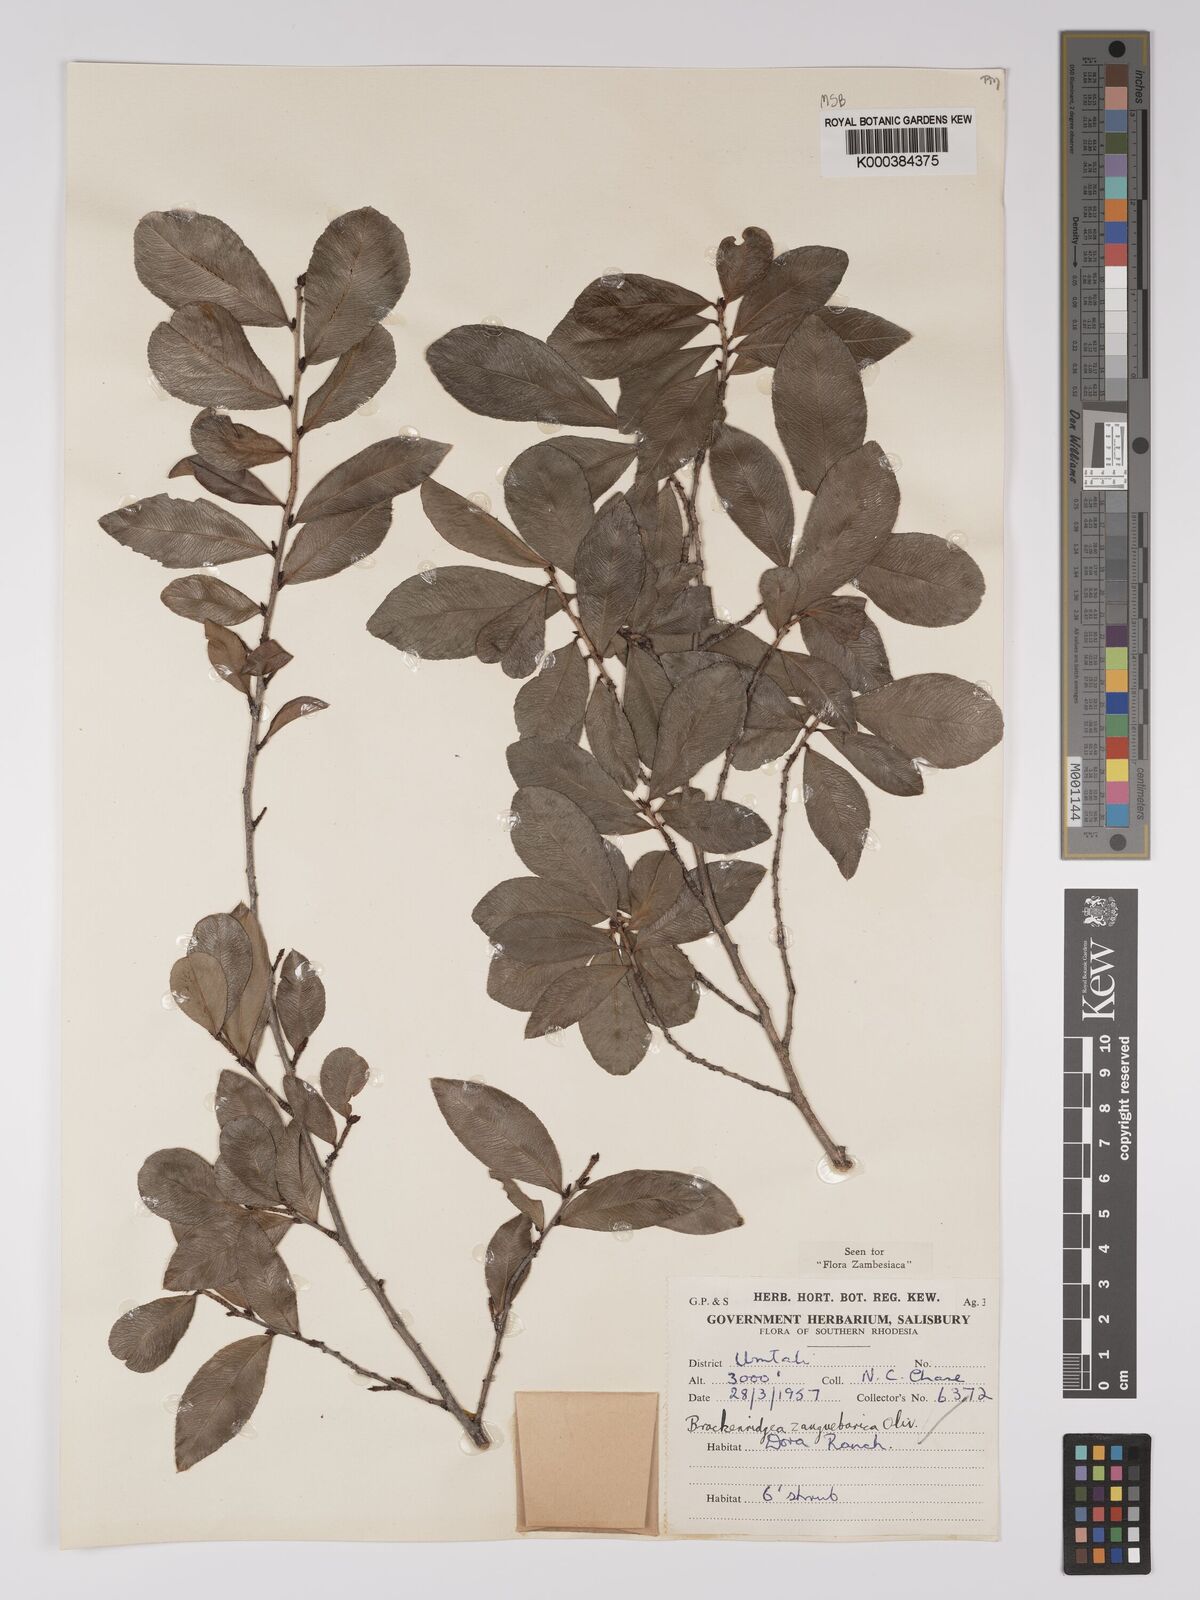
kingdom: Plantae
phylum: Tracheophyta
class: Magnoliopsida
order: Malpighiales
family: Ochnaceae
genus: Brackenridgea
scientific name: Brackenridgea zanguebarica
